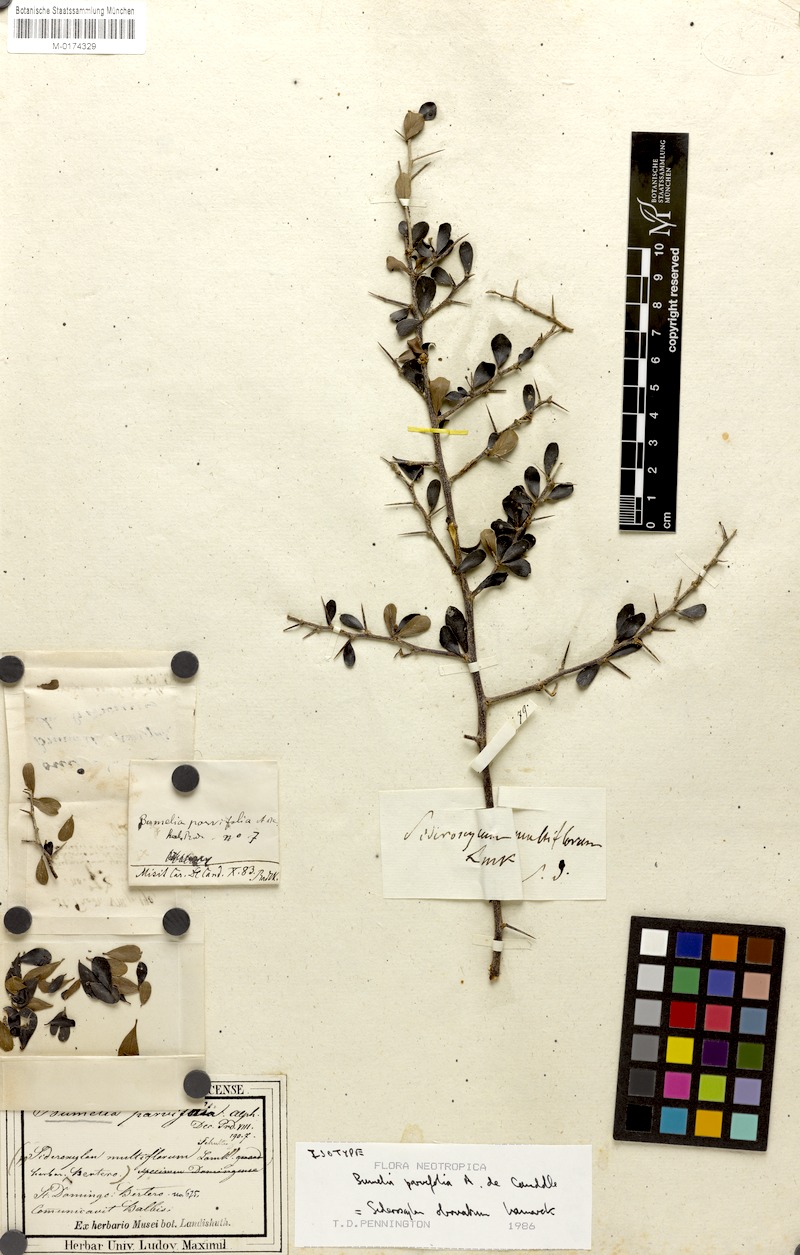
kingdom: Plantae
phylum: Tracheophyta
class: Magnoliopsida
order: Ericales
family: Sapotaceae
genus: Sideroxylon
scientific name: Sideroxylon obovatum
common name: Breakbill
